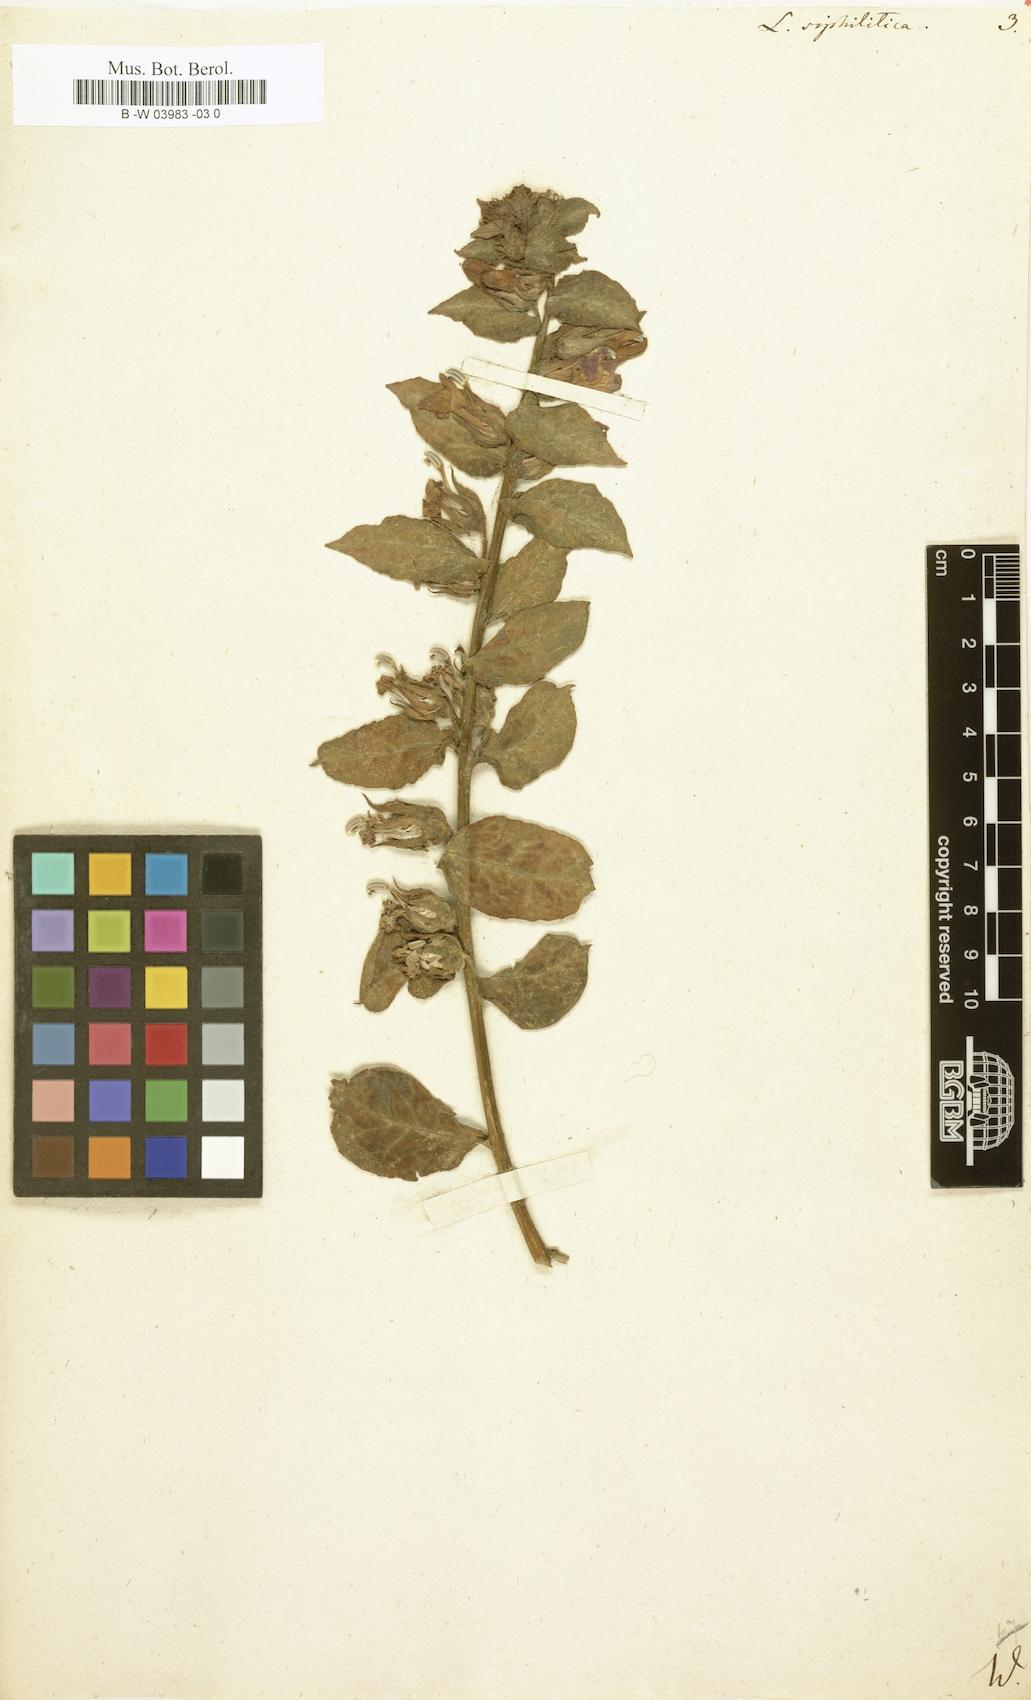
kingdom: Plantae
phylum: Tracheophyta
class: Magnoliopsida
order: Asterales
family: Campanulaceae
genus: Lobelia
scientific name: Lobelia siphilitica
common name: Great lobelia
